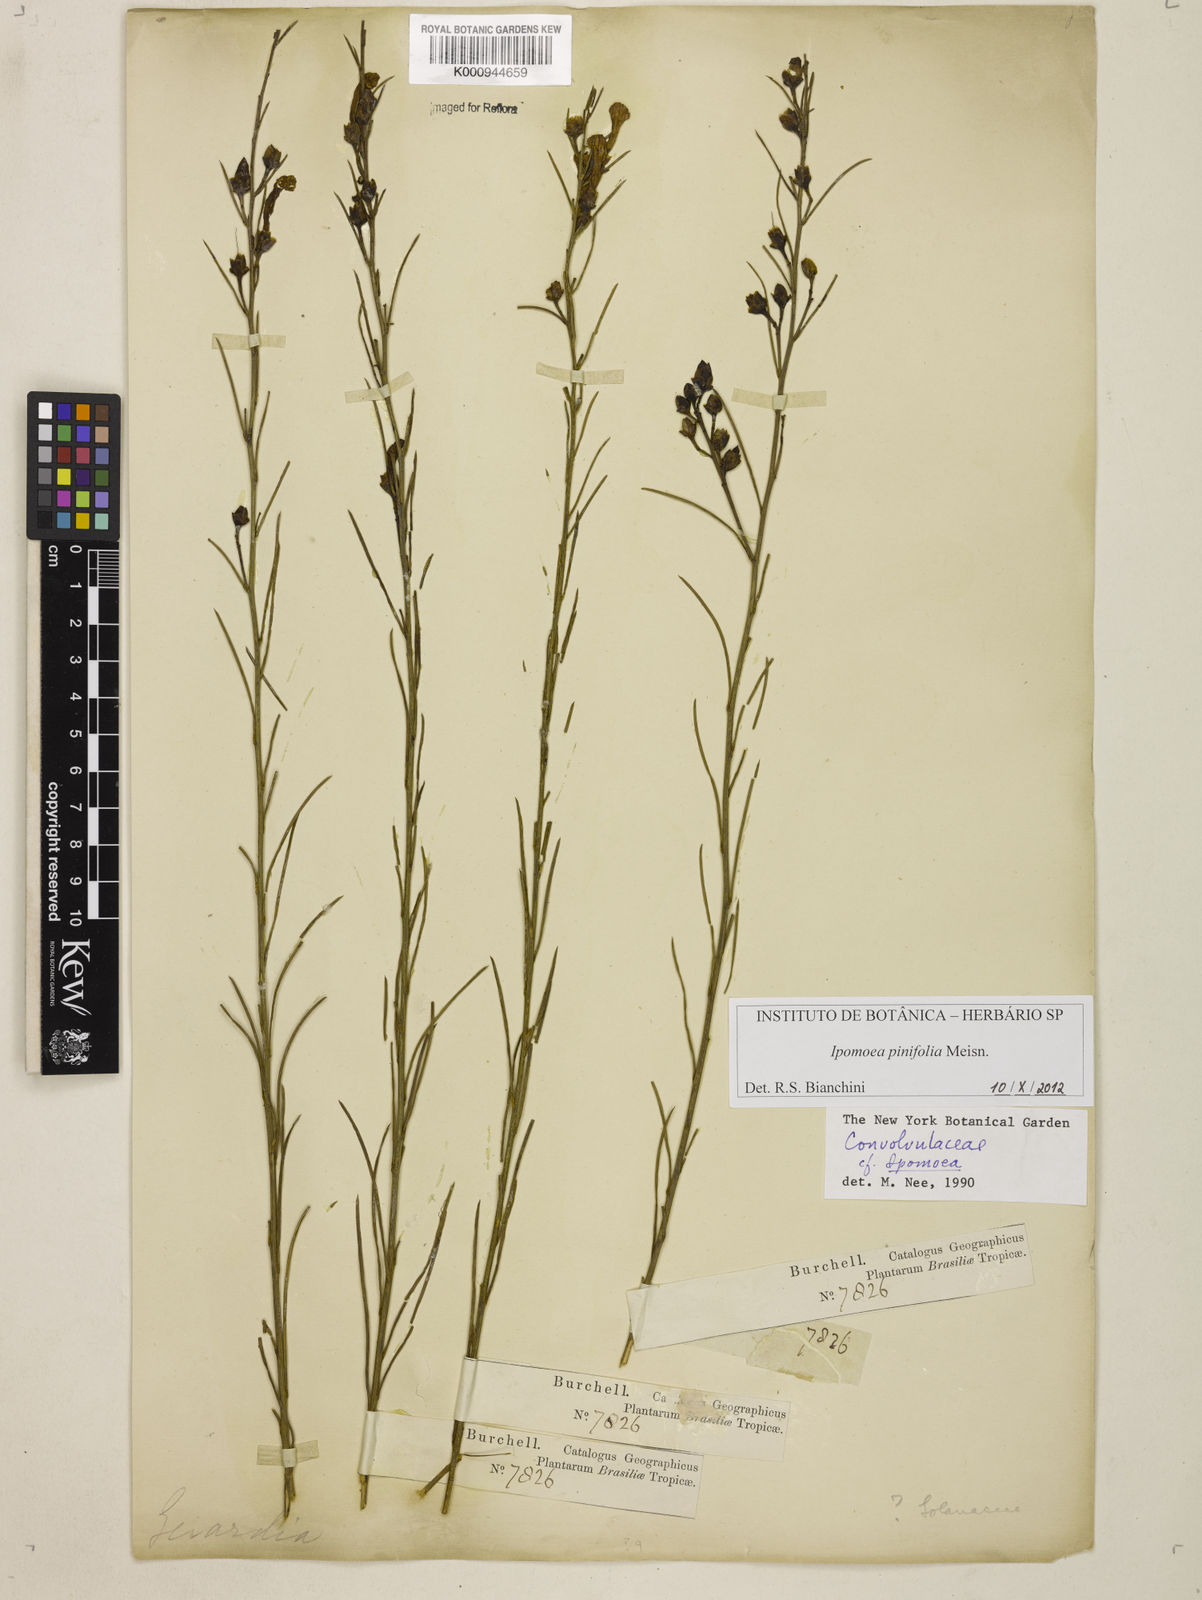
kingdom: Plantae
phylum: Tracheophyta
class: Magnoliopsida
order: Solanales
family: Convolvulaceae
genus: Ipomoea
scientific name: Ipomoea pinifolia
